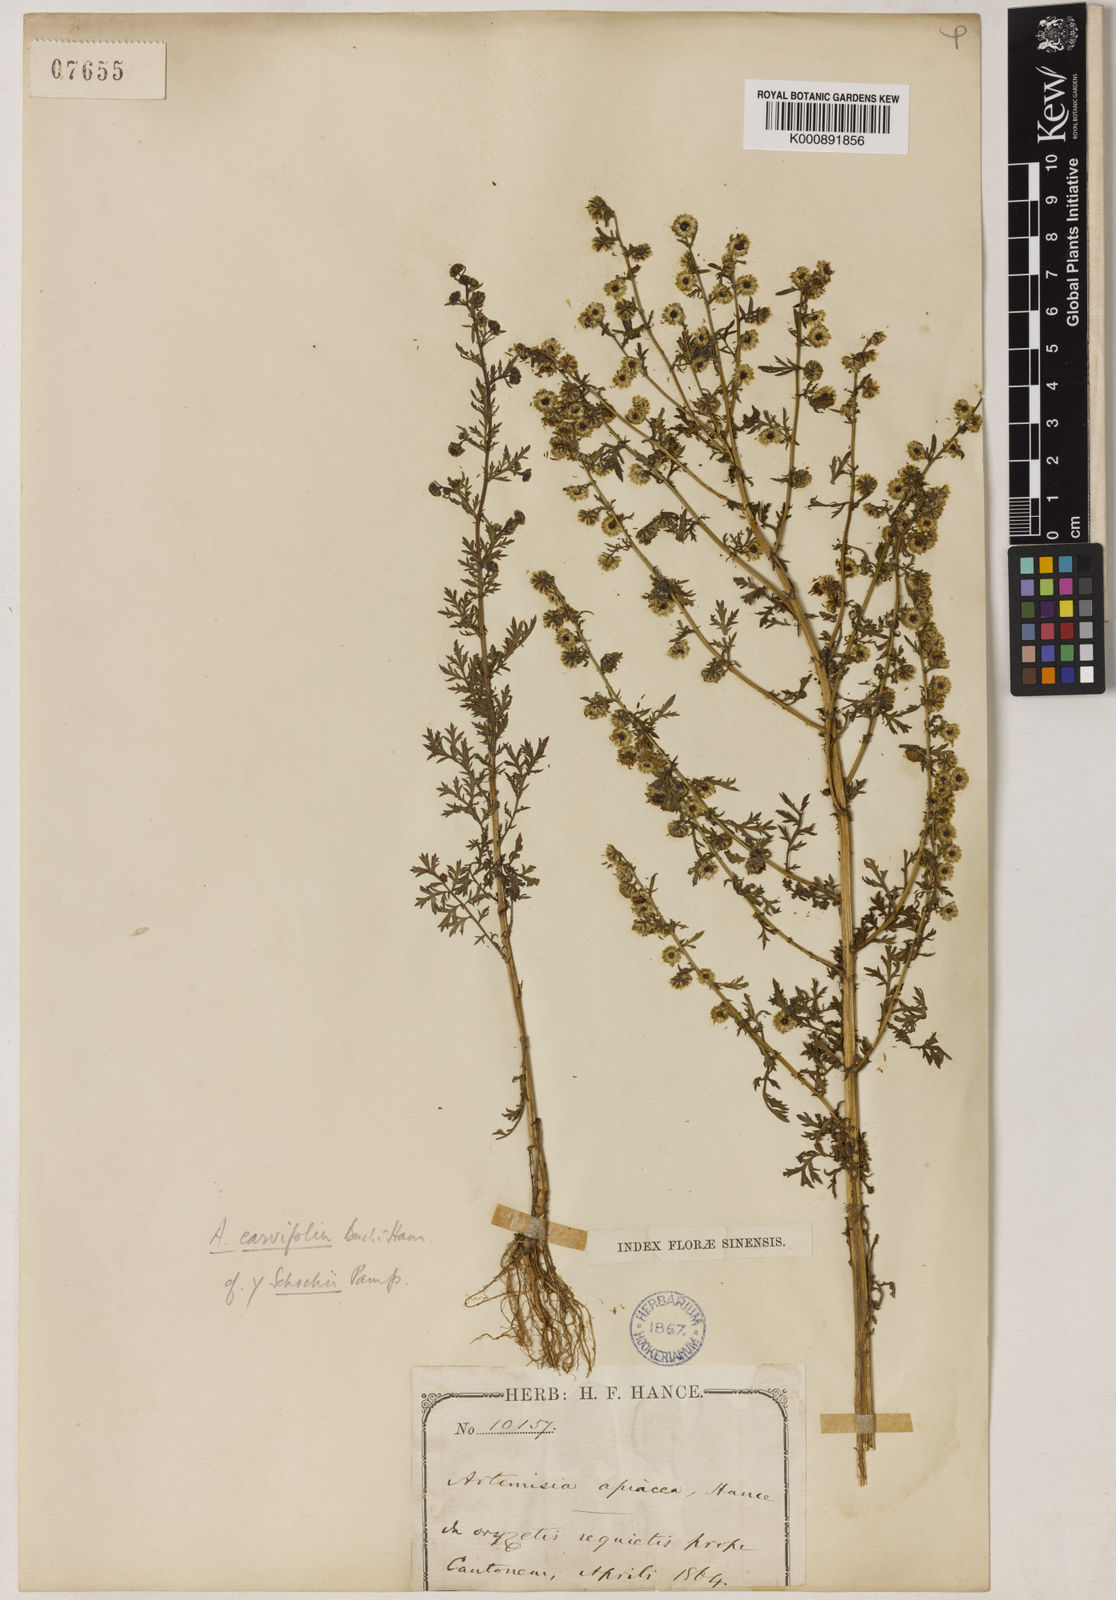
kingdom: Plantae
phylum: Tracheophyta
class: Magnoliopsida
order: Asterales
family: Asteraceae
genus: Artemisia
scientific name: Artemisia
